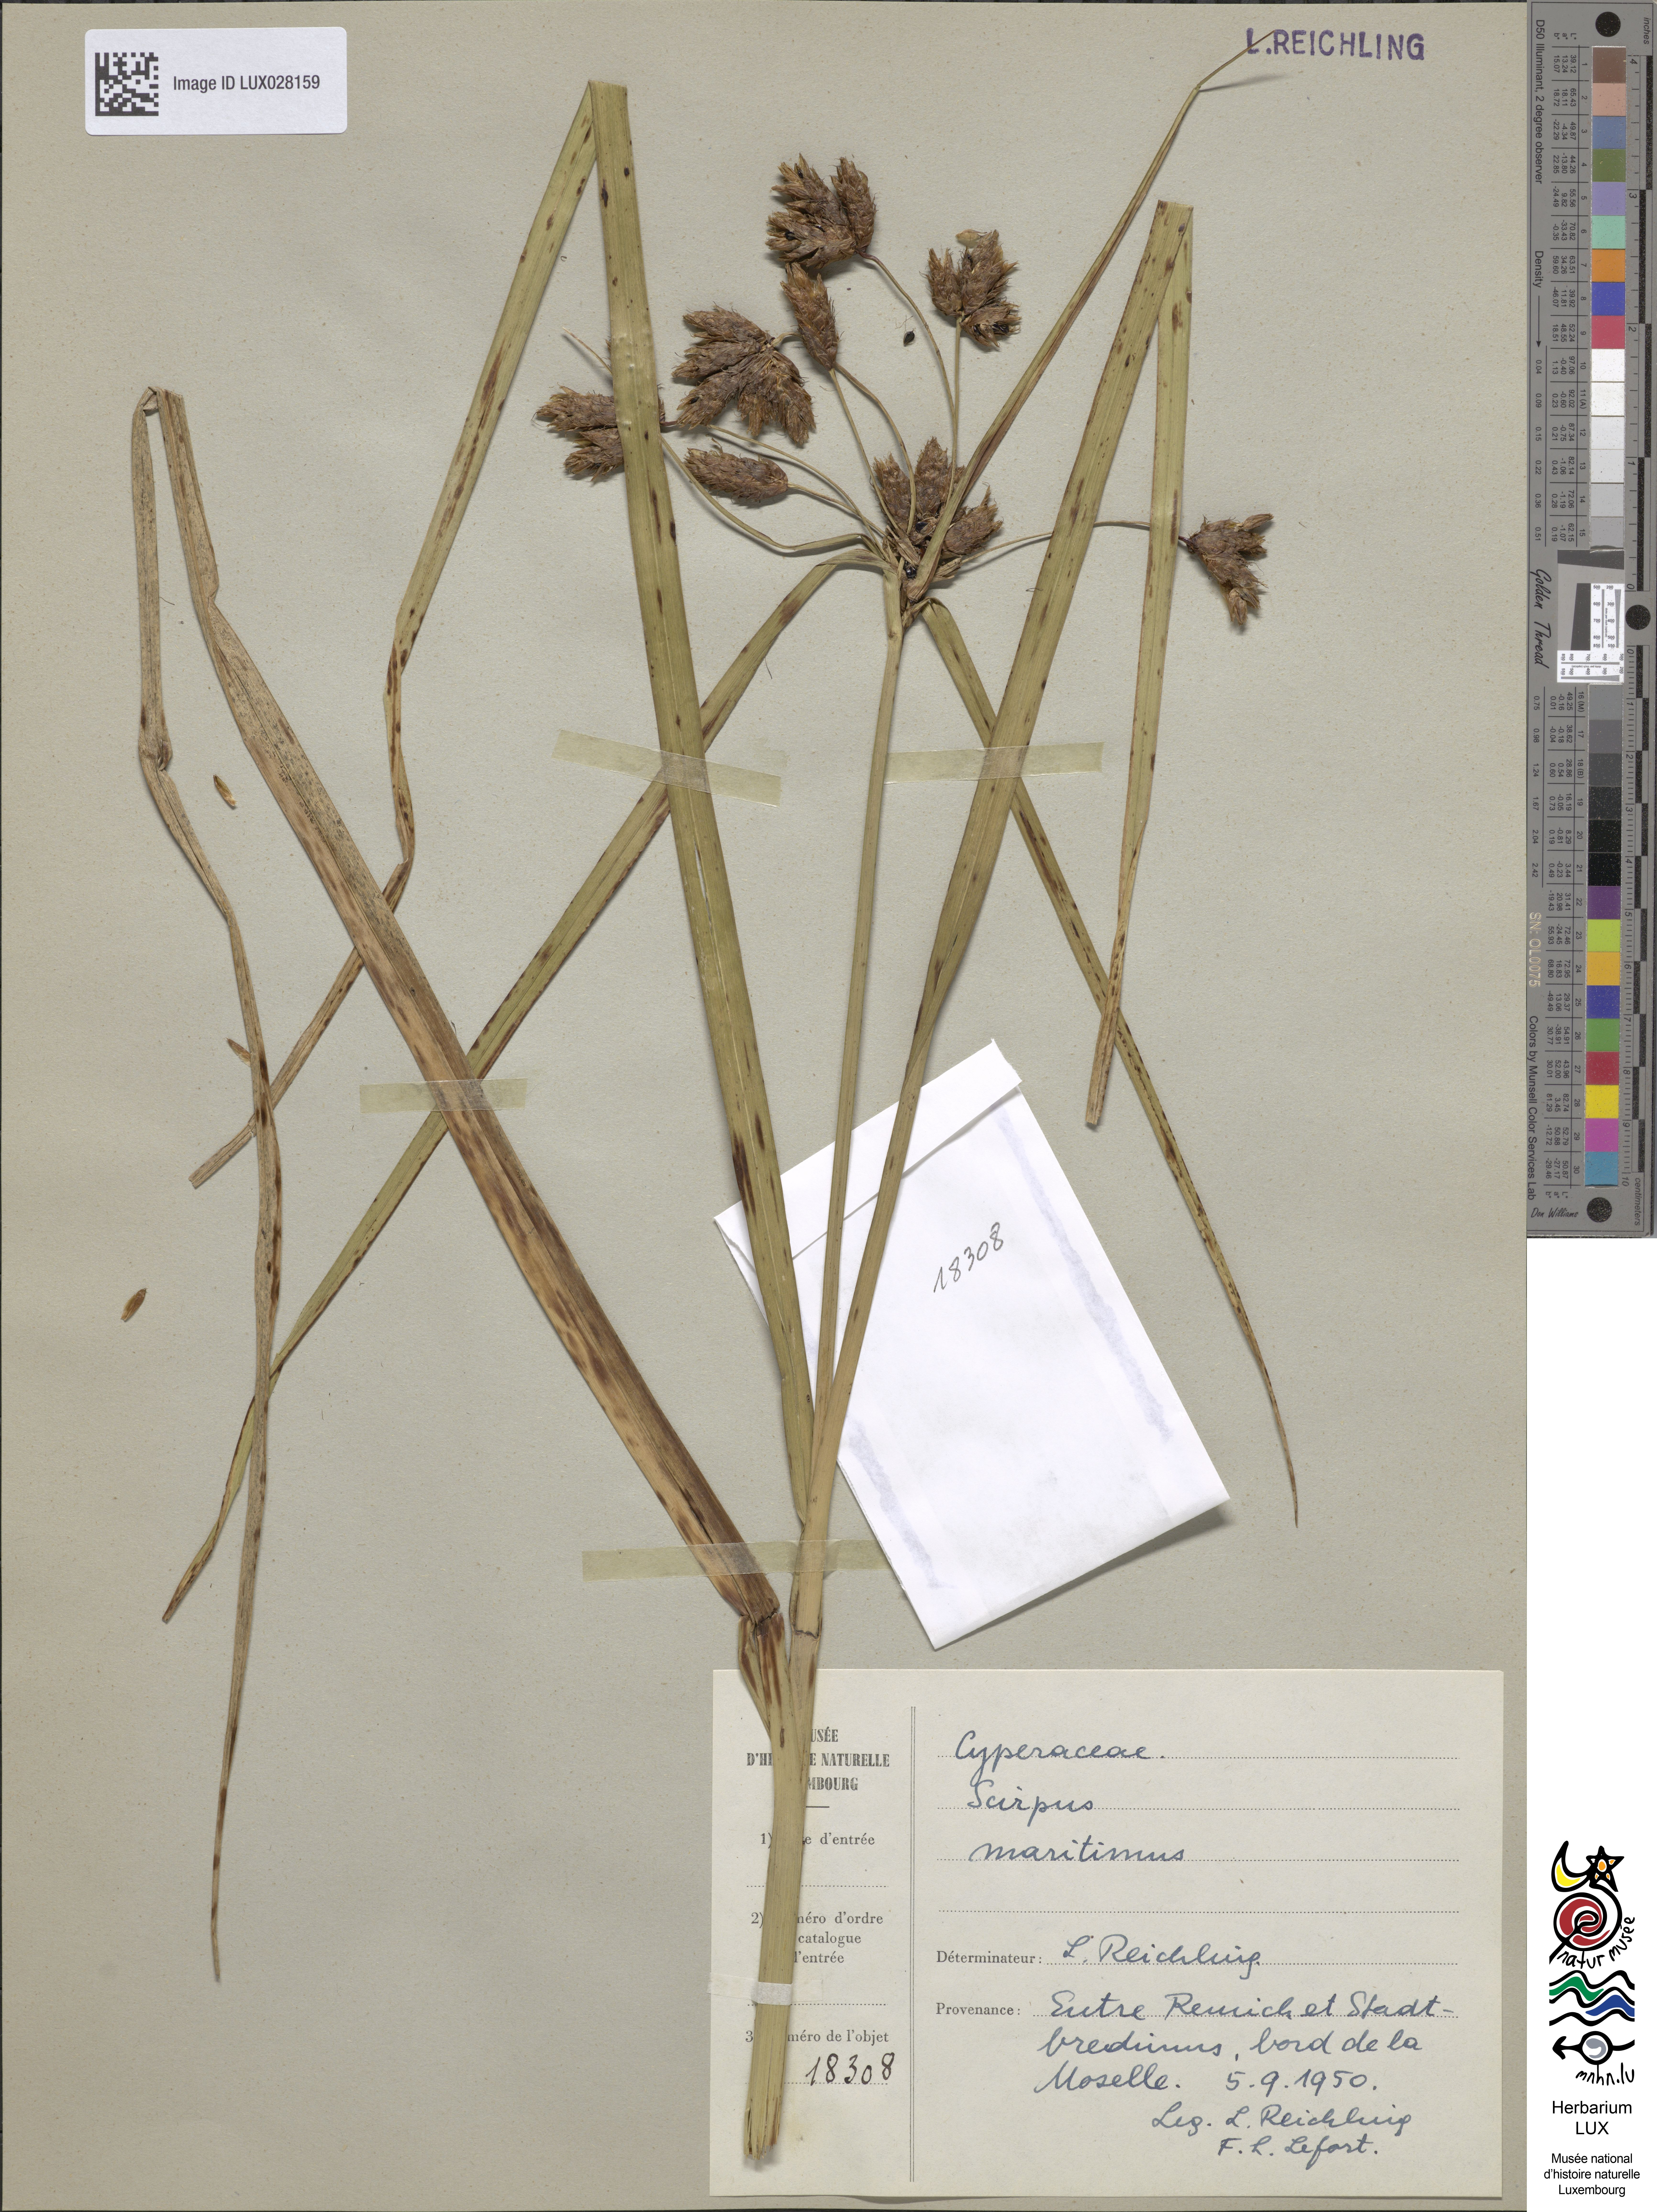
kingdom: Plantae
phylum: Tracheophyta
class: Liliopsida
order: Poales
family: Cyperaceae
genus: Bolboschoenus
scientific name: Bolboschoenus maritimus
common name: Sea club-rush
